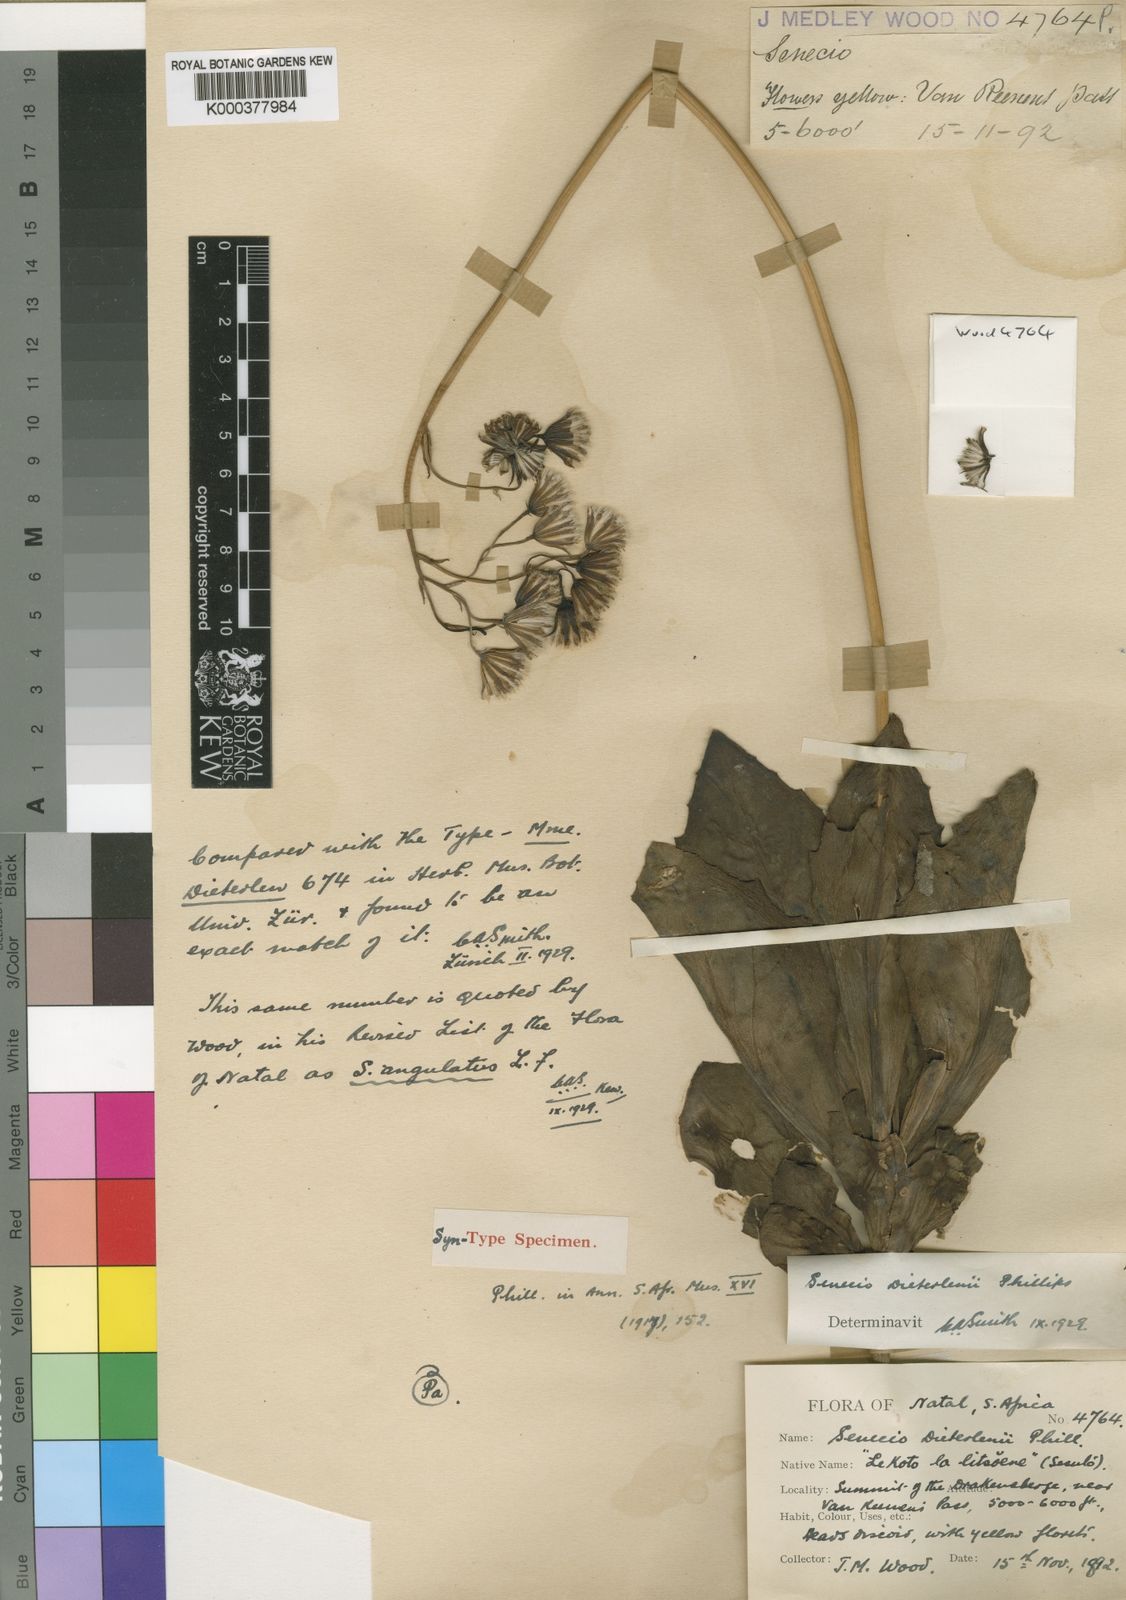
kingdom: Plantae
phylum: Tracheophyta
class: Magnoliopsida
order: Asterales
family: Asteraceae
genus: Senecio
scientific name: Senecio rhomboideus
